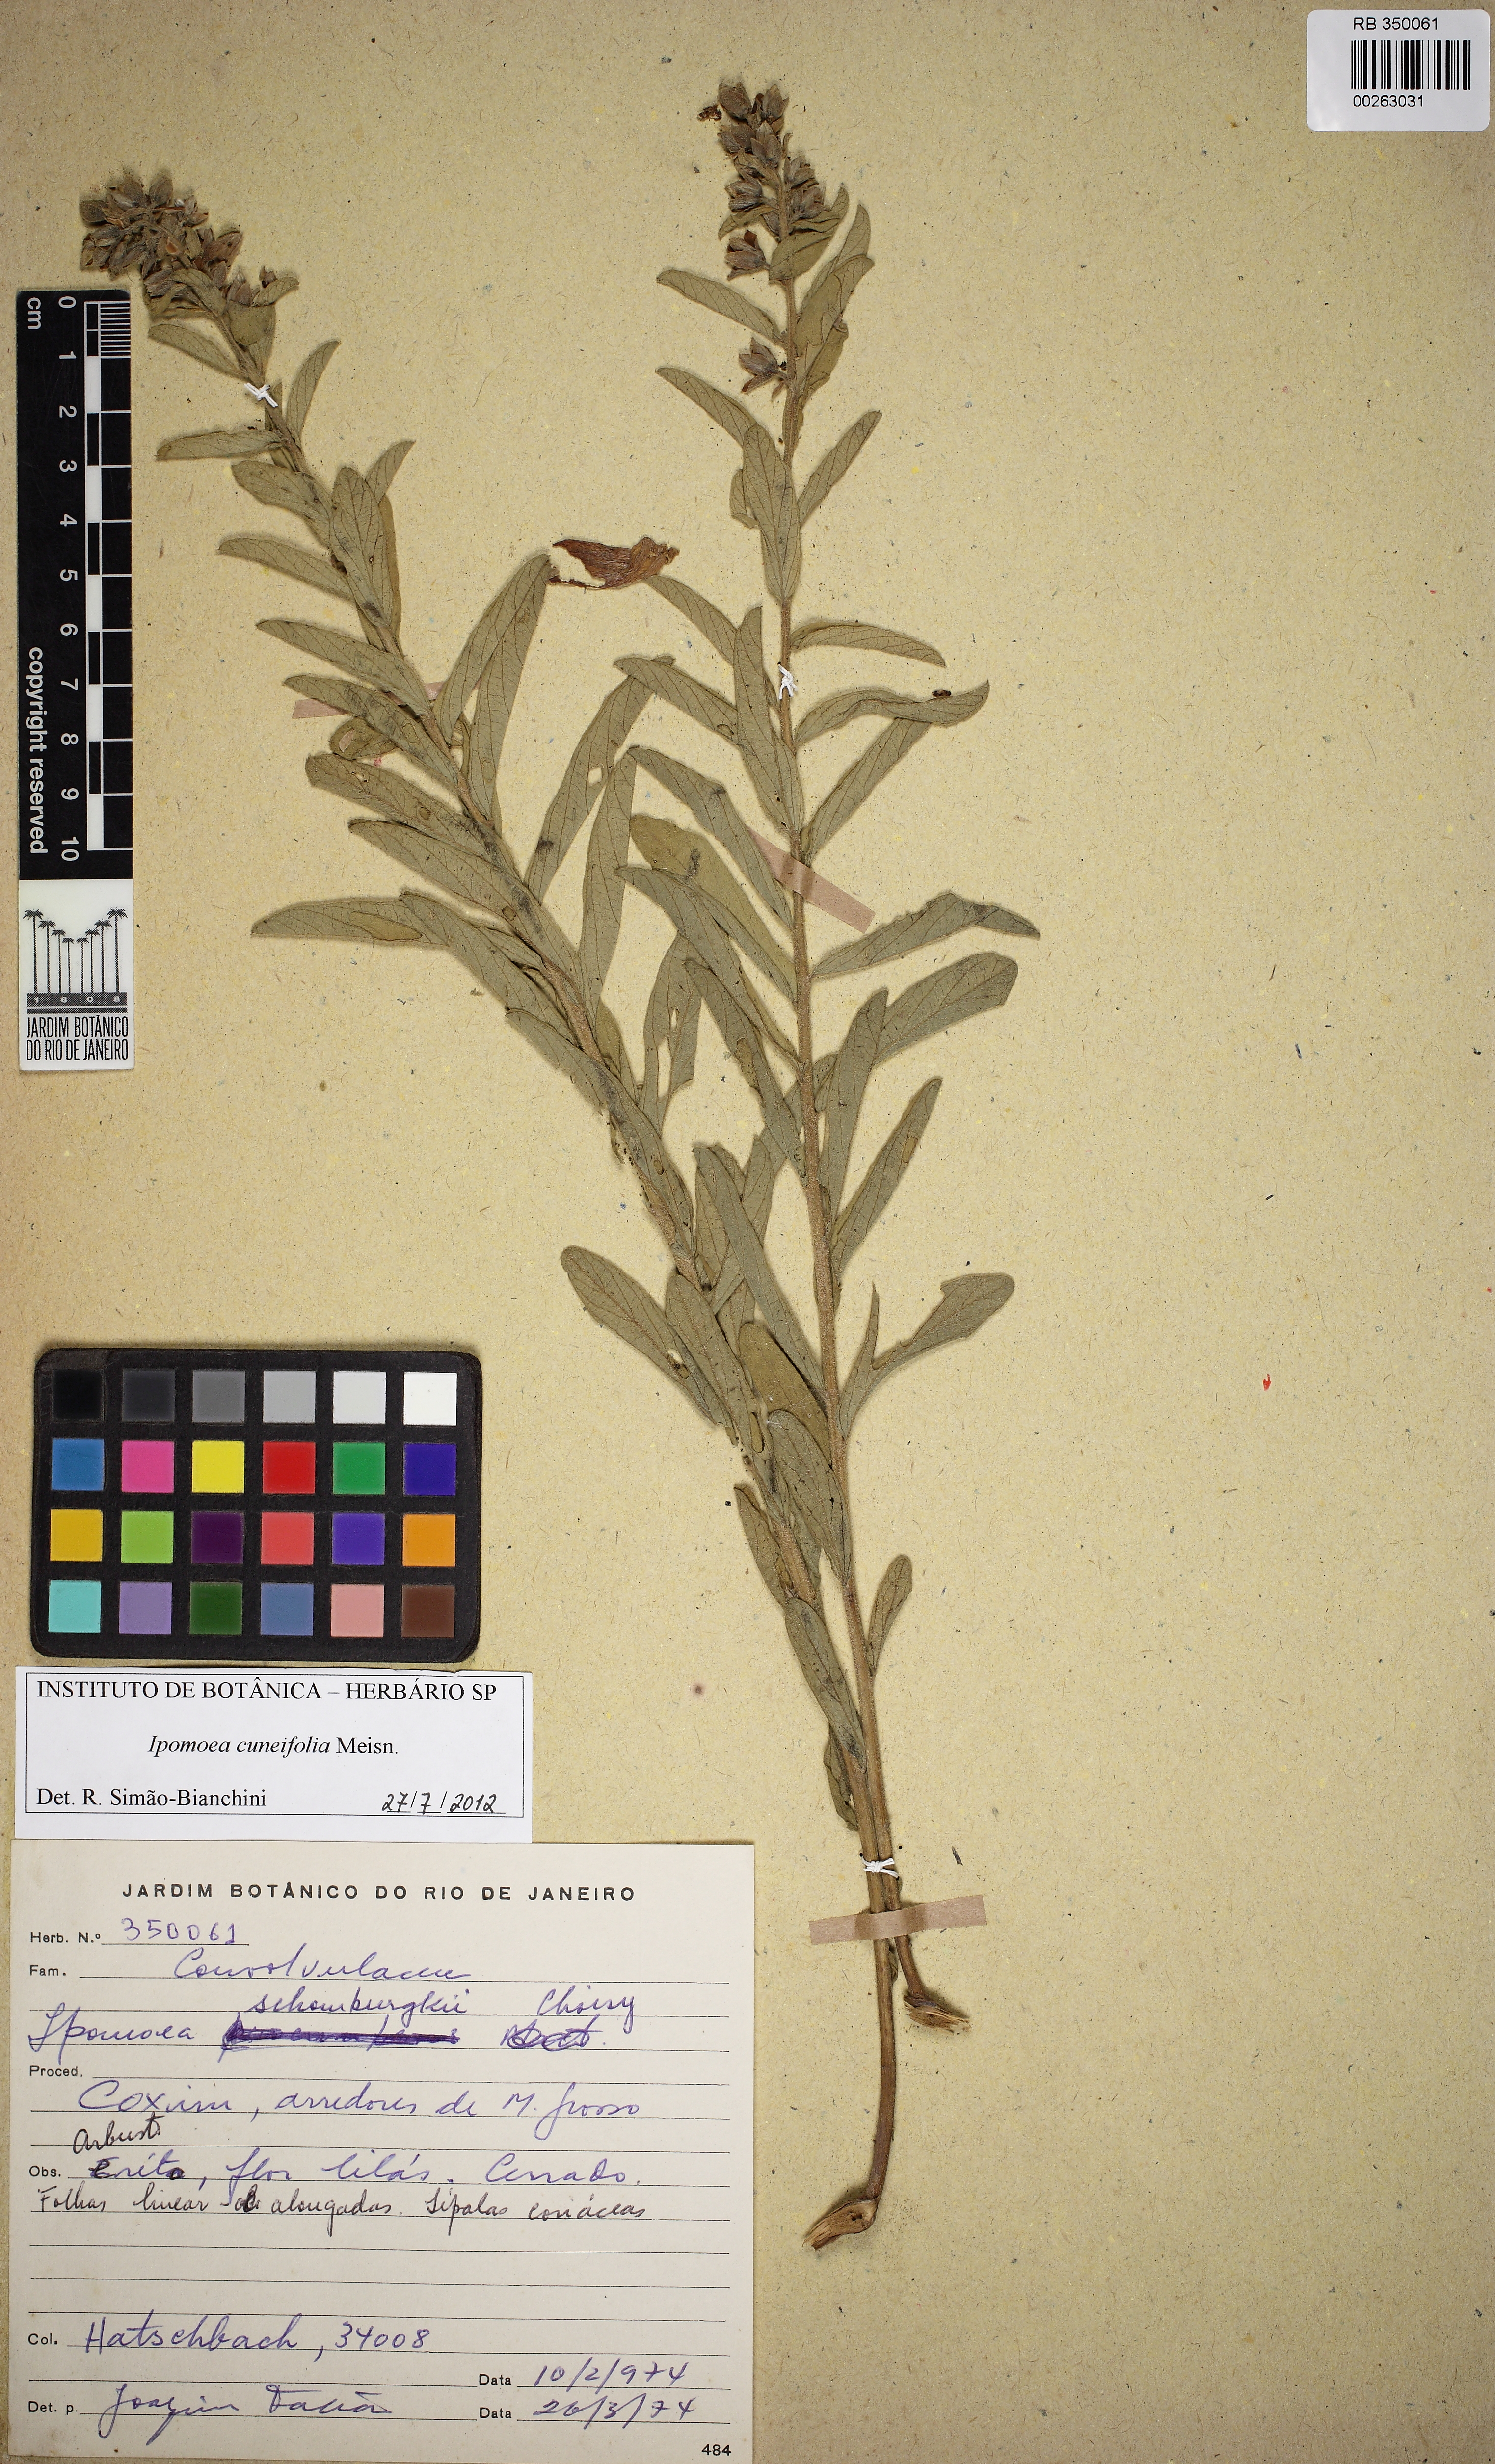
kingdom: Plantae
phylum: Tracheophyta
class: Magnoliopsida
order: Solanales
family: Convolvulaceae
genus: Ipomoea
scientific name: Ipomoea cuneifolia
